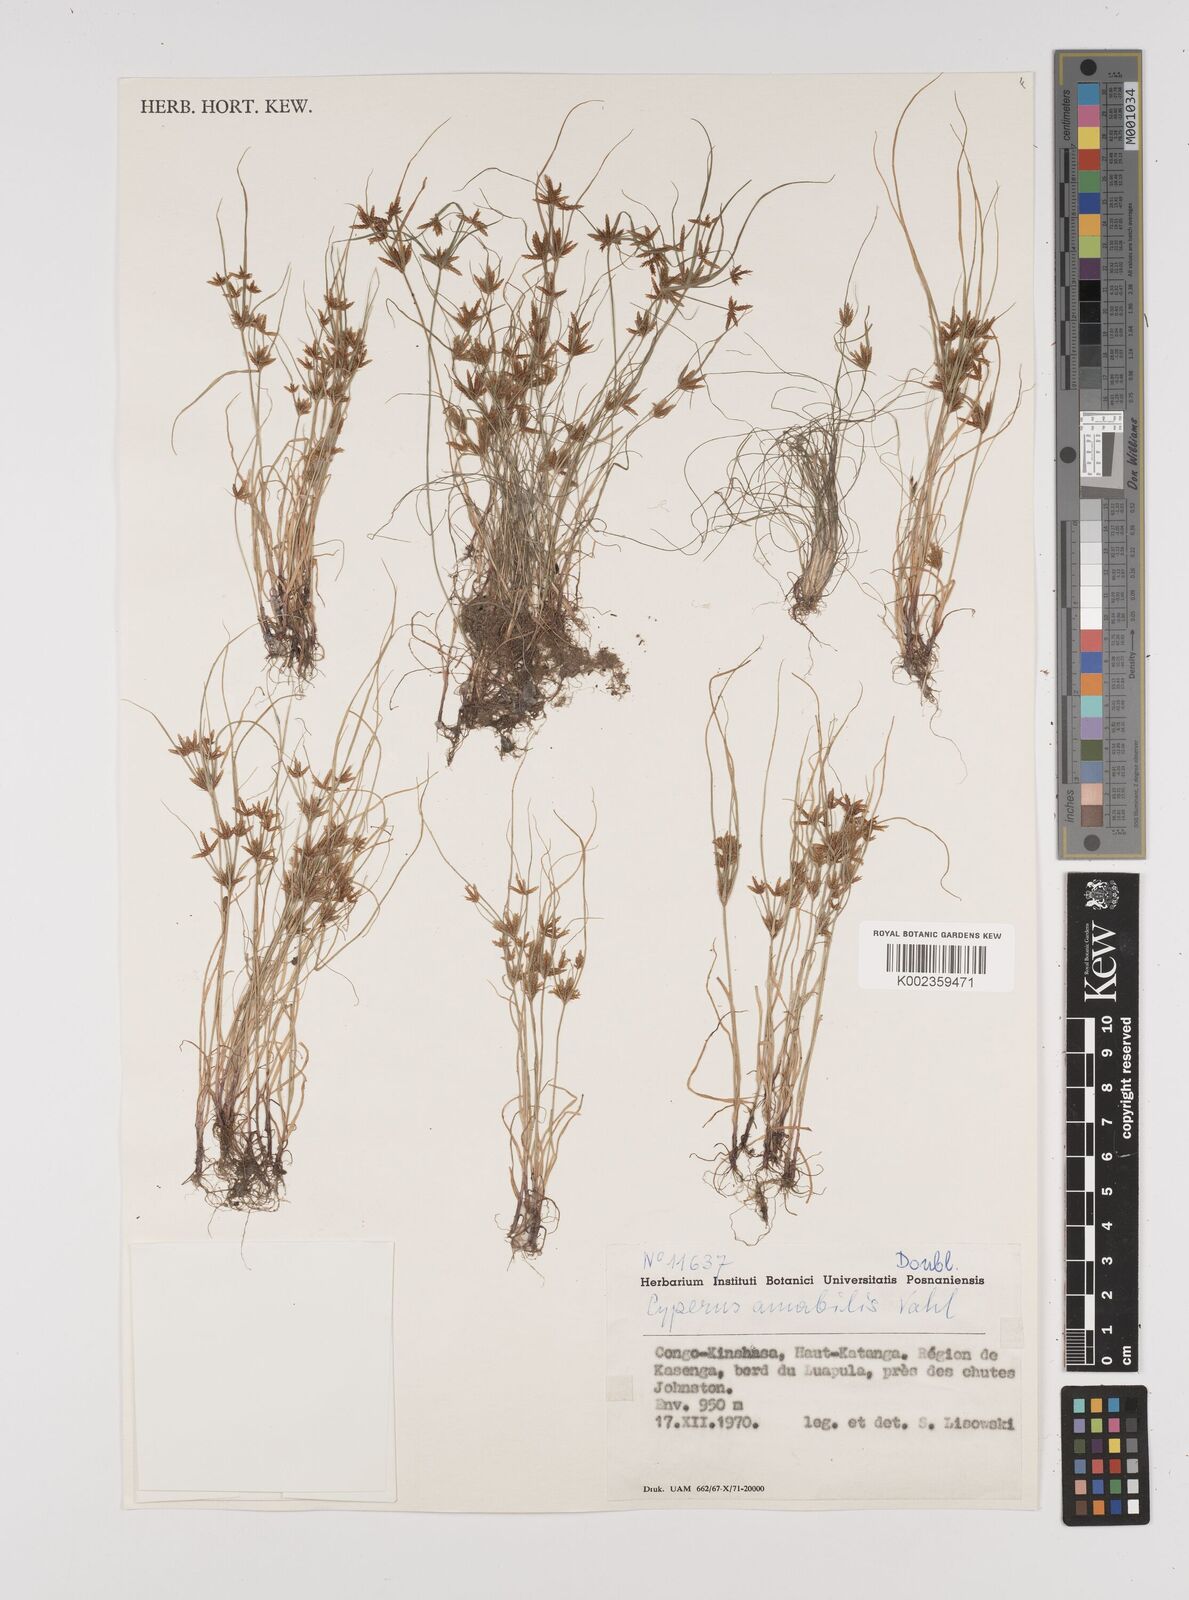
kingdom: Plantae
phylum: Tracheophyta
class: Liliopsida
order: Poales
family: Cyperaceae
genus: Cyperus
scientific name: Cyperus amabilis
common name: Foothill flat sedge
